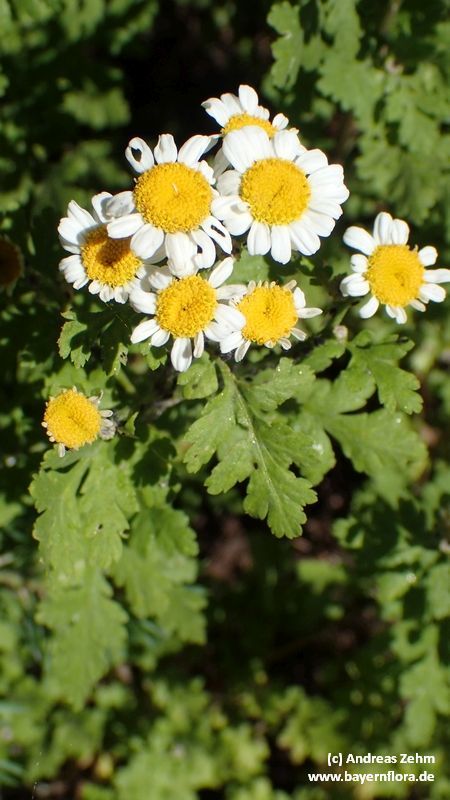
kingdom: Plantae
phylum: Tracheophyta
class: Magnoliopsida
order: Asterales
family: Asteraceae
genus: Tanacetum
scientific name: Tanacetum parthenium
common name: Feverfew
